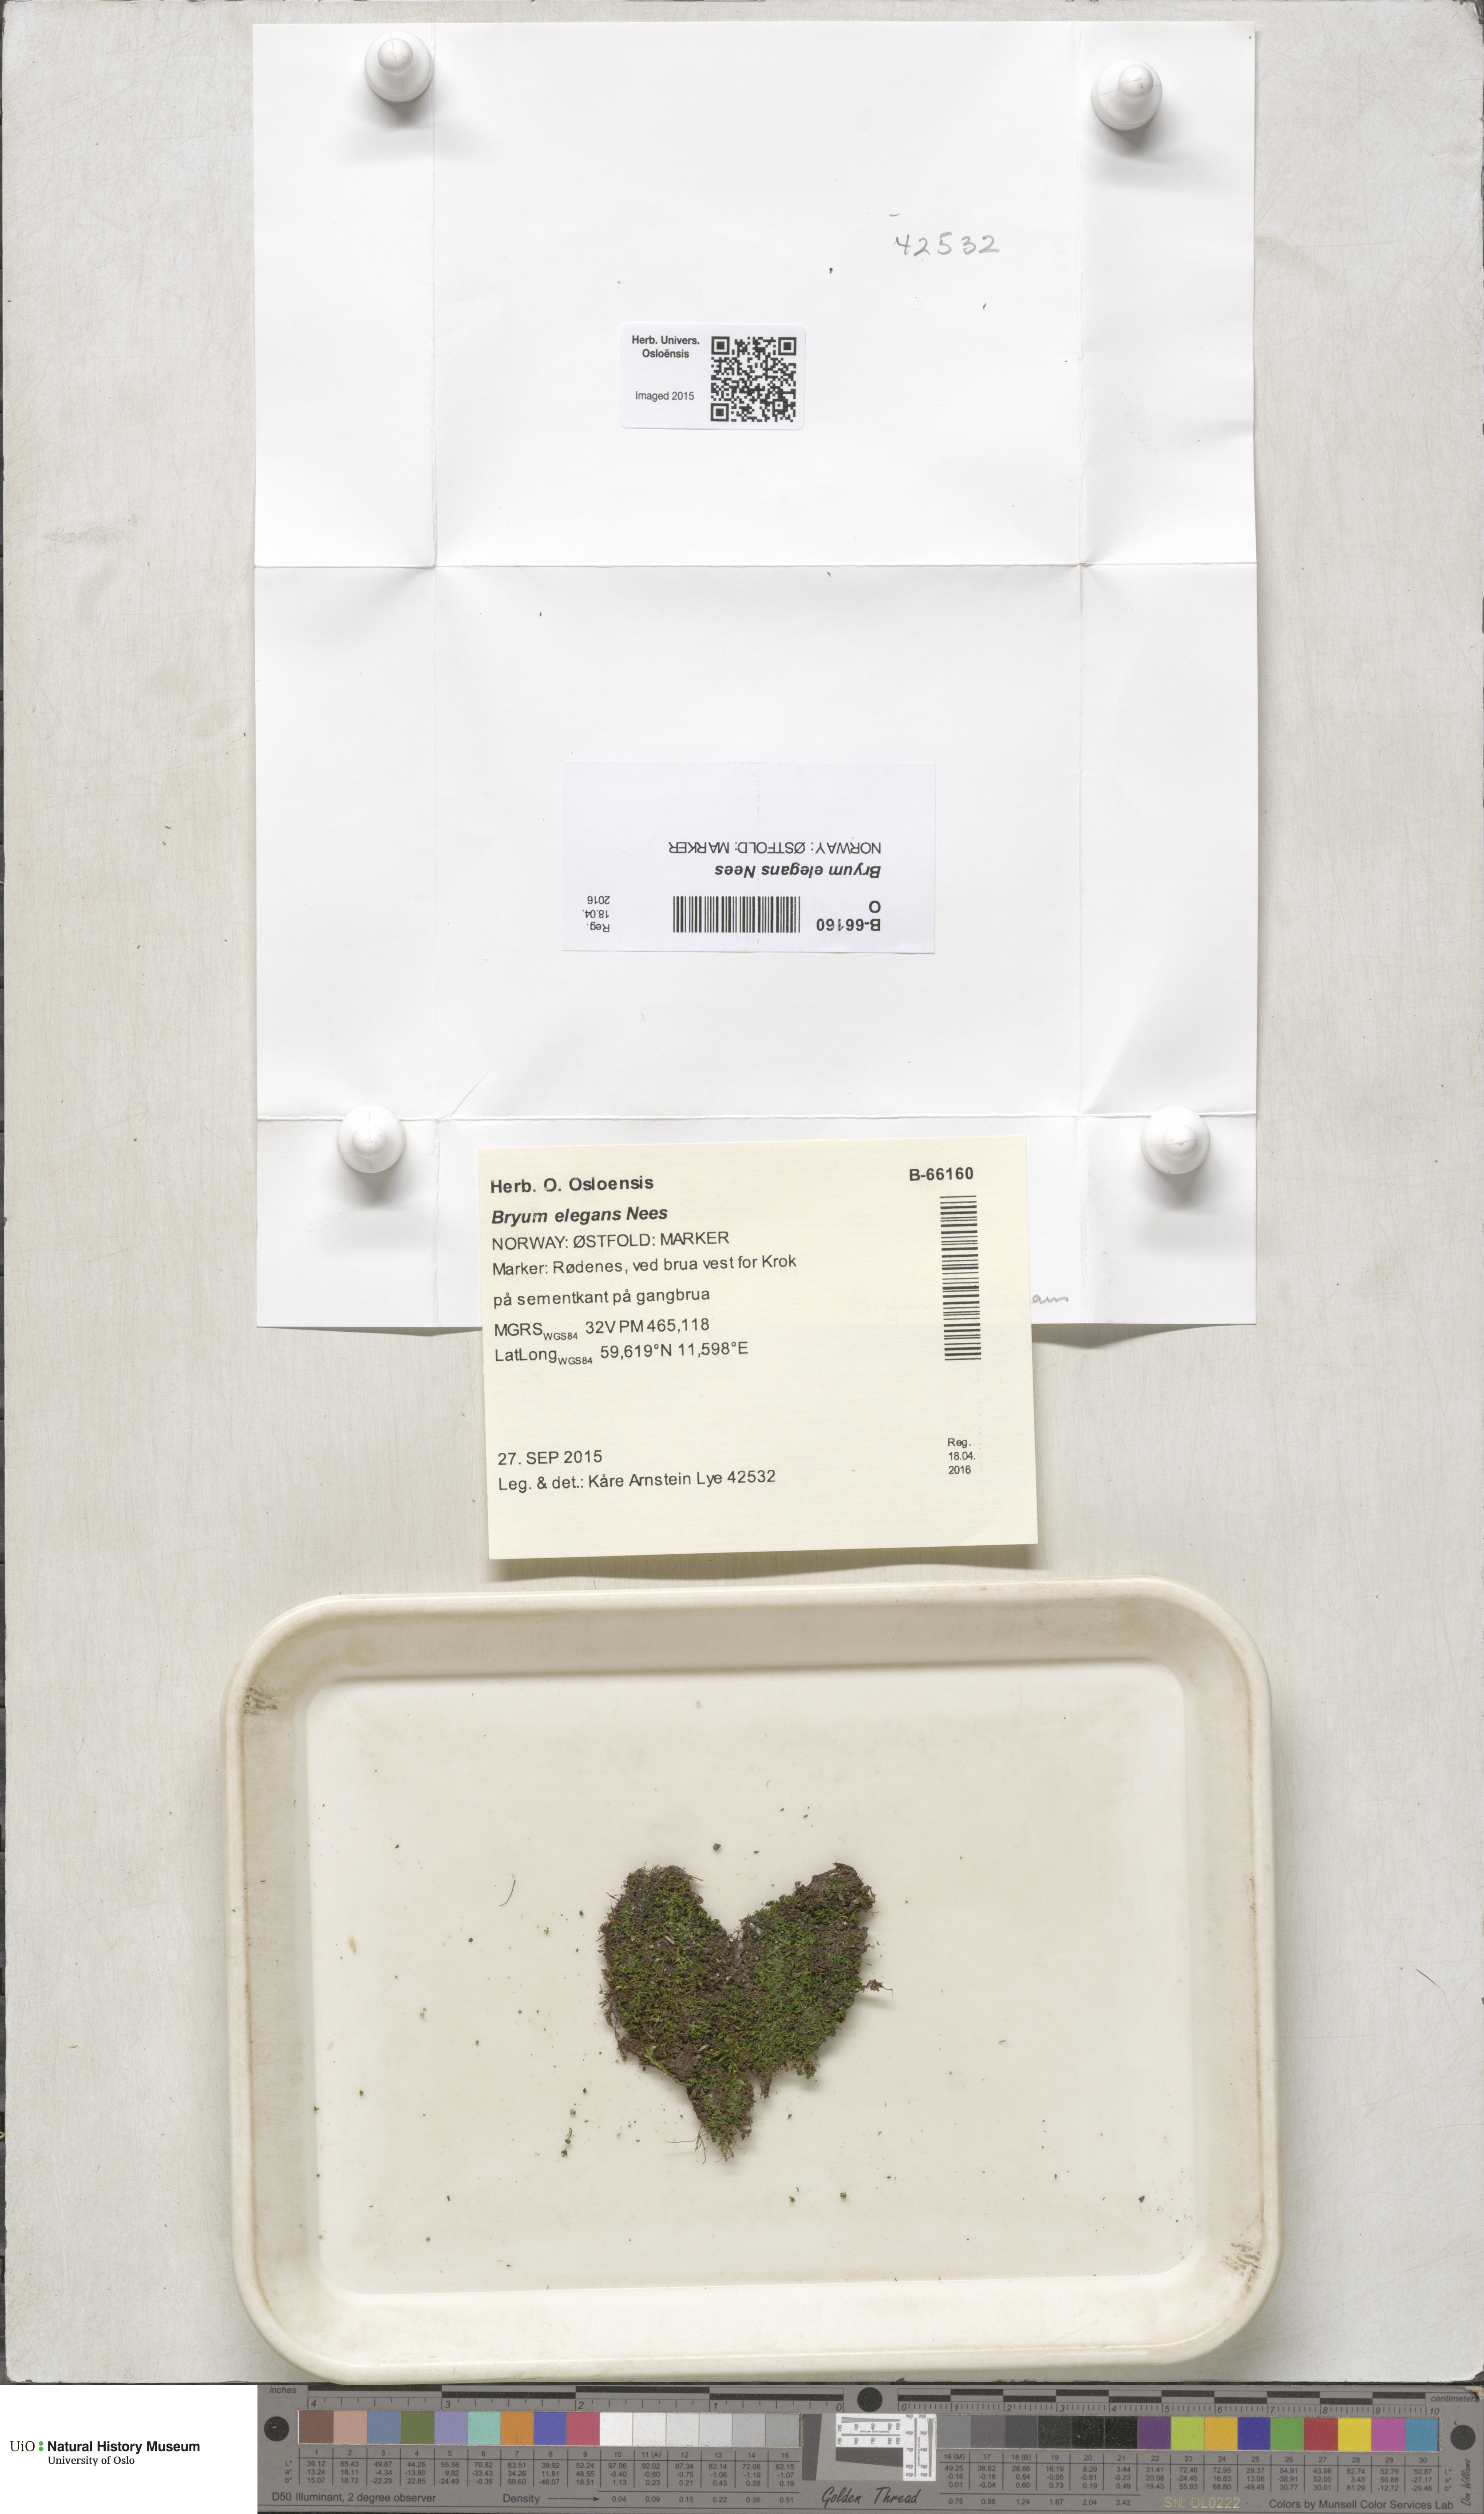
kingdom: Plantae
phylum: Bryophyta
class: Bryopsida
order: Bryales
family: Bryaceae
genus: Rosulabryum
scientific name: Rosulabryum elegans
